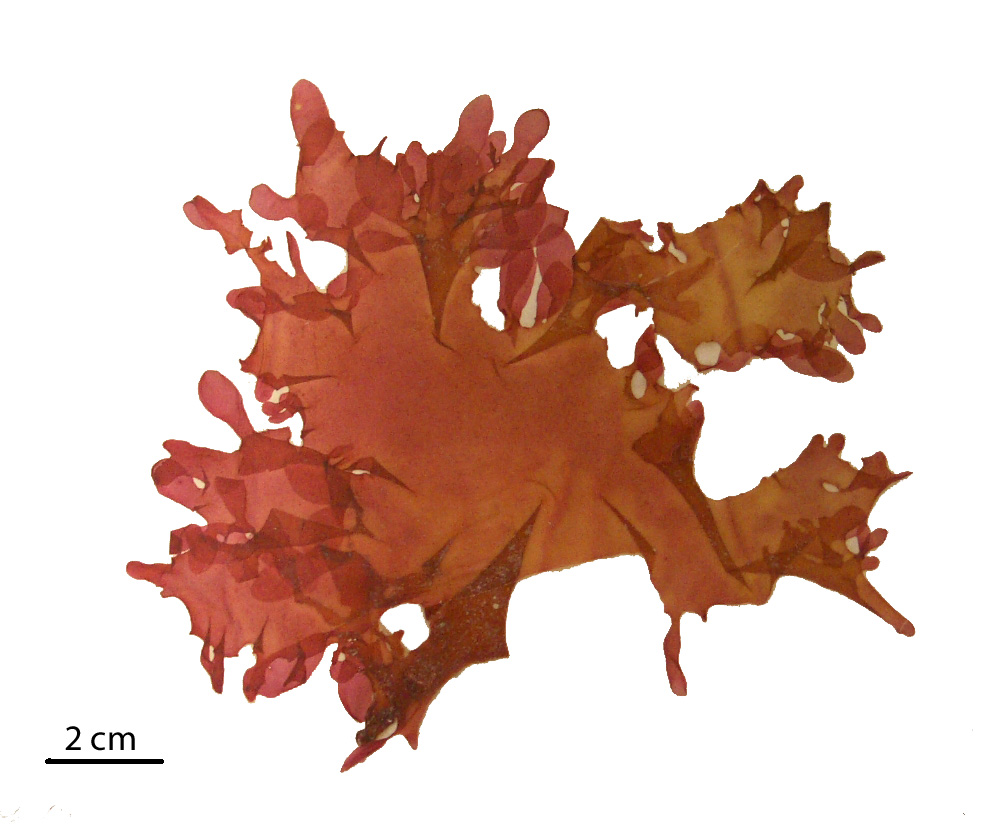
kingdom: Plantae
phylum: Rhodophyta
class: Florideophyceae
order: Gigartinales
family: Kallymeniaceae
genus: Psaromenia
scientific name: Psaromenia berggrenii
